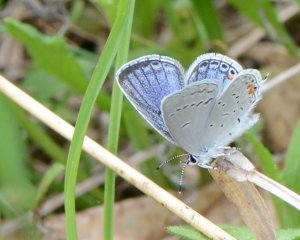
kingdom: Animalia
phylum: Arthropoda
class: Insecta
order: Lepidoptera
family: Lycaenidae
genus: Elkalyce
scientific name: Elkalyce comyntas
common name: Eastern Tailed-Blue
